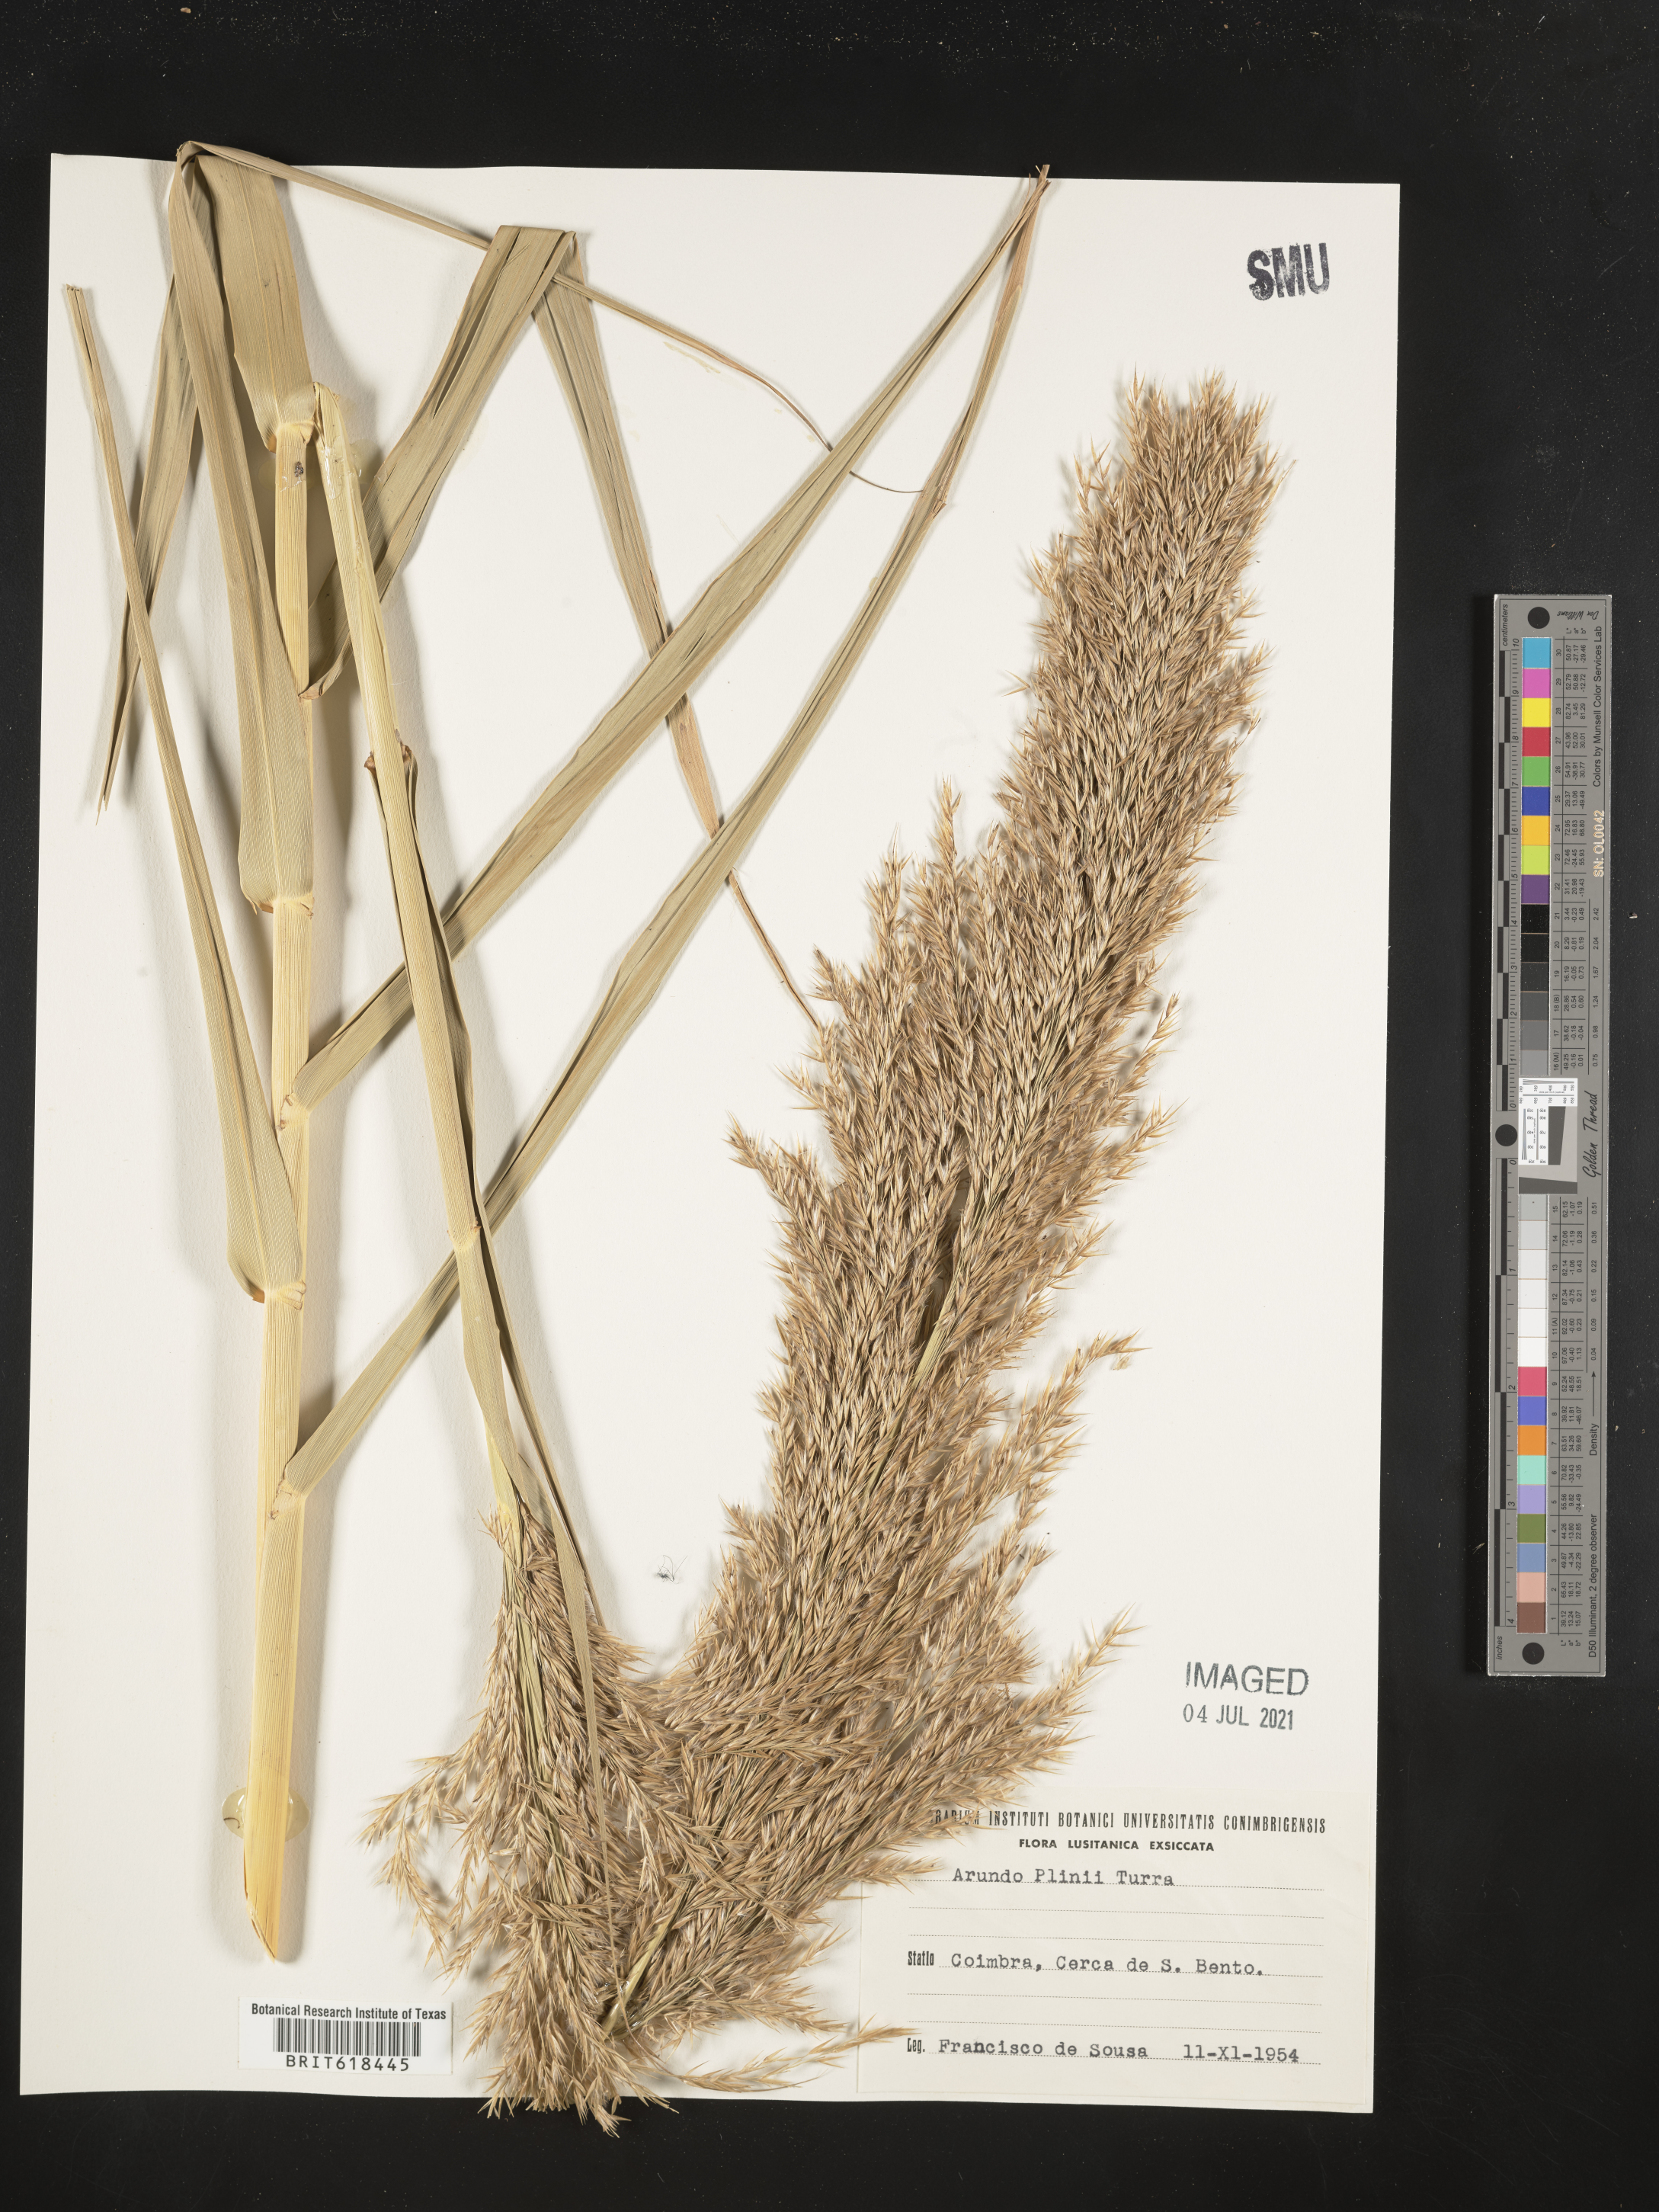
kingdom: Plantae
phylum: Tracheophyta
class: Liliopsida
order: Poales
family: Poaceae
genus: Arundo
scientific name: Arundo plinii
